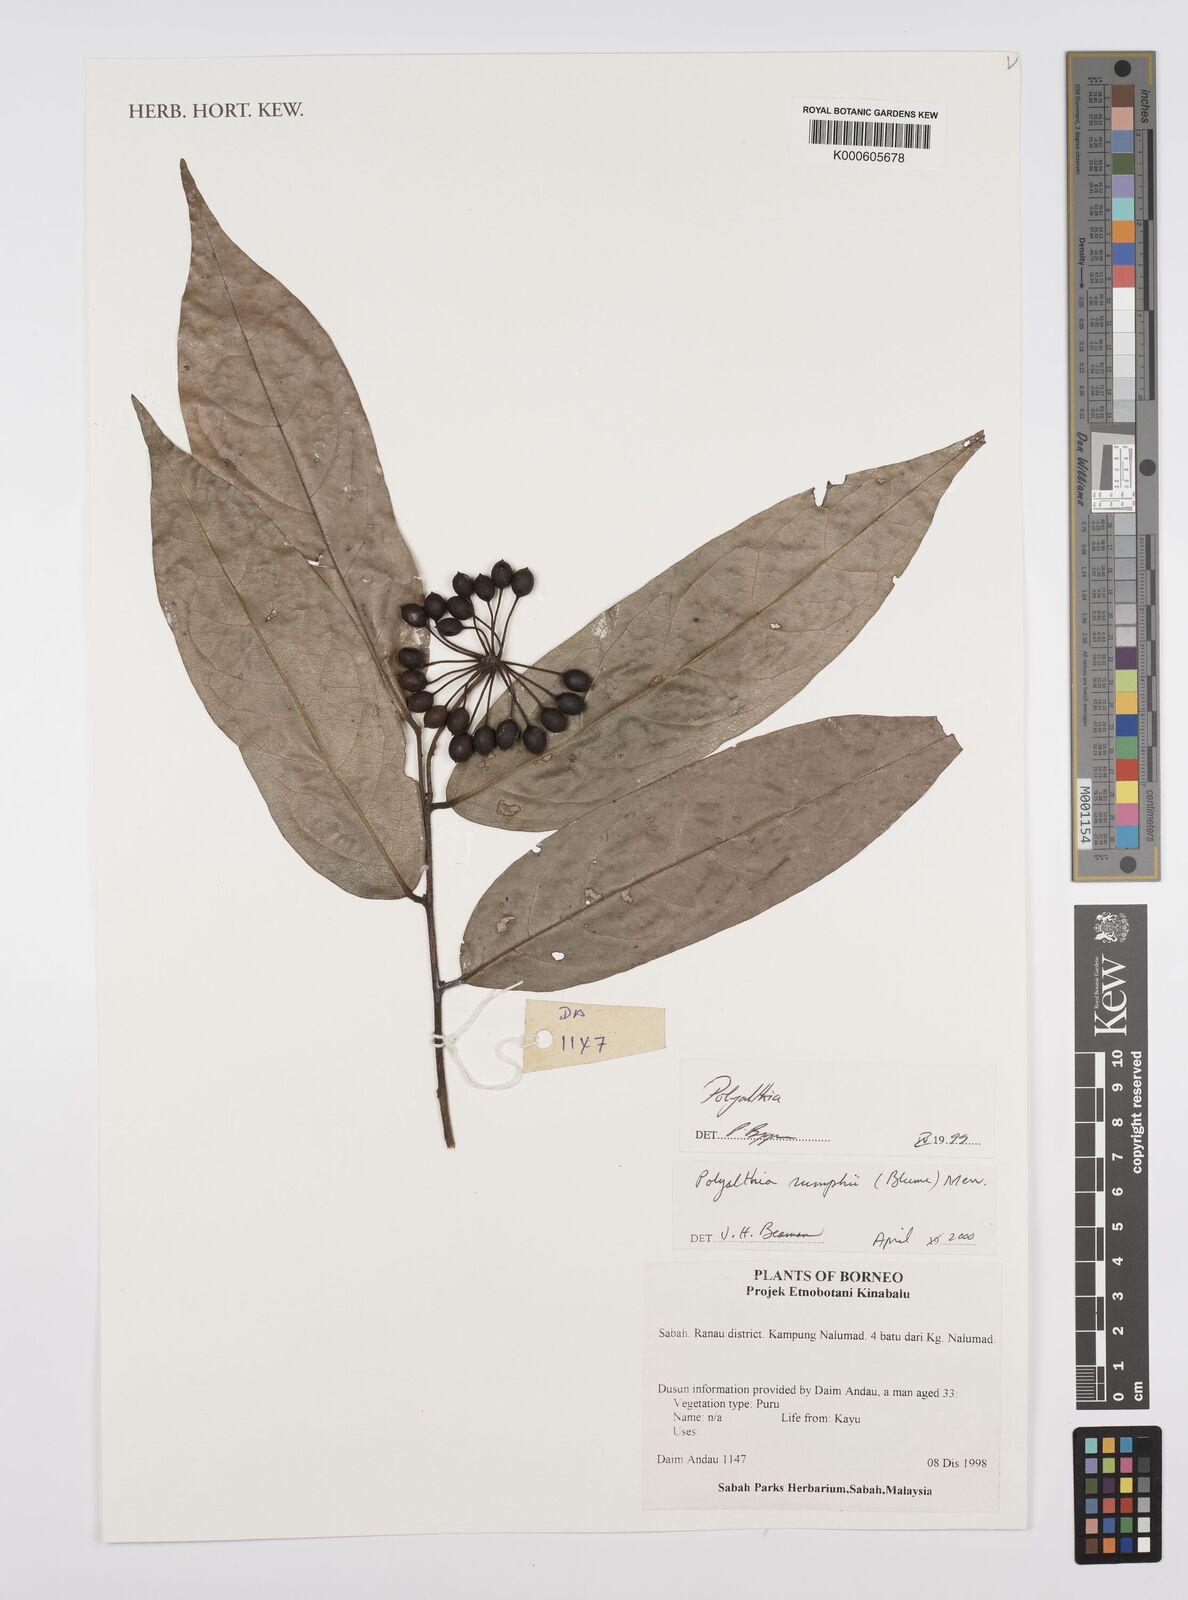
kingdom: Plantae
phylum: Tracheophyta
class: Magnoliopsida
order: Magnoliales
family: Annonaceae
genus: Hubera
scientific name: Hubera rumphii
